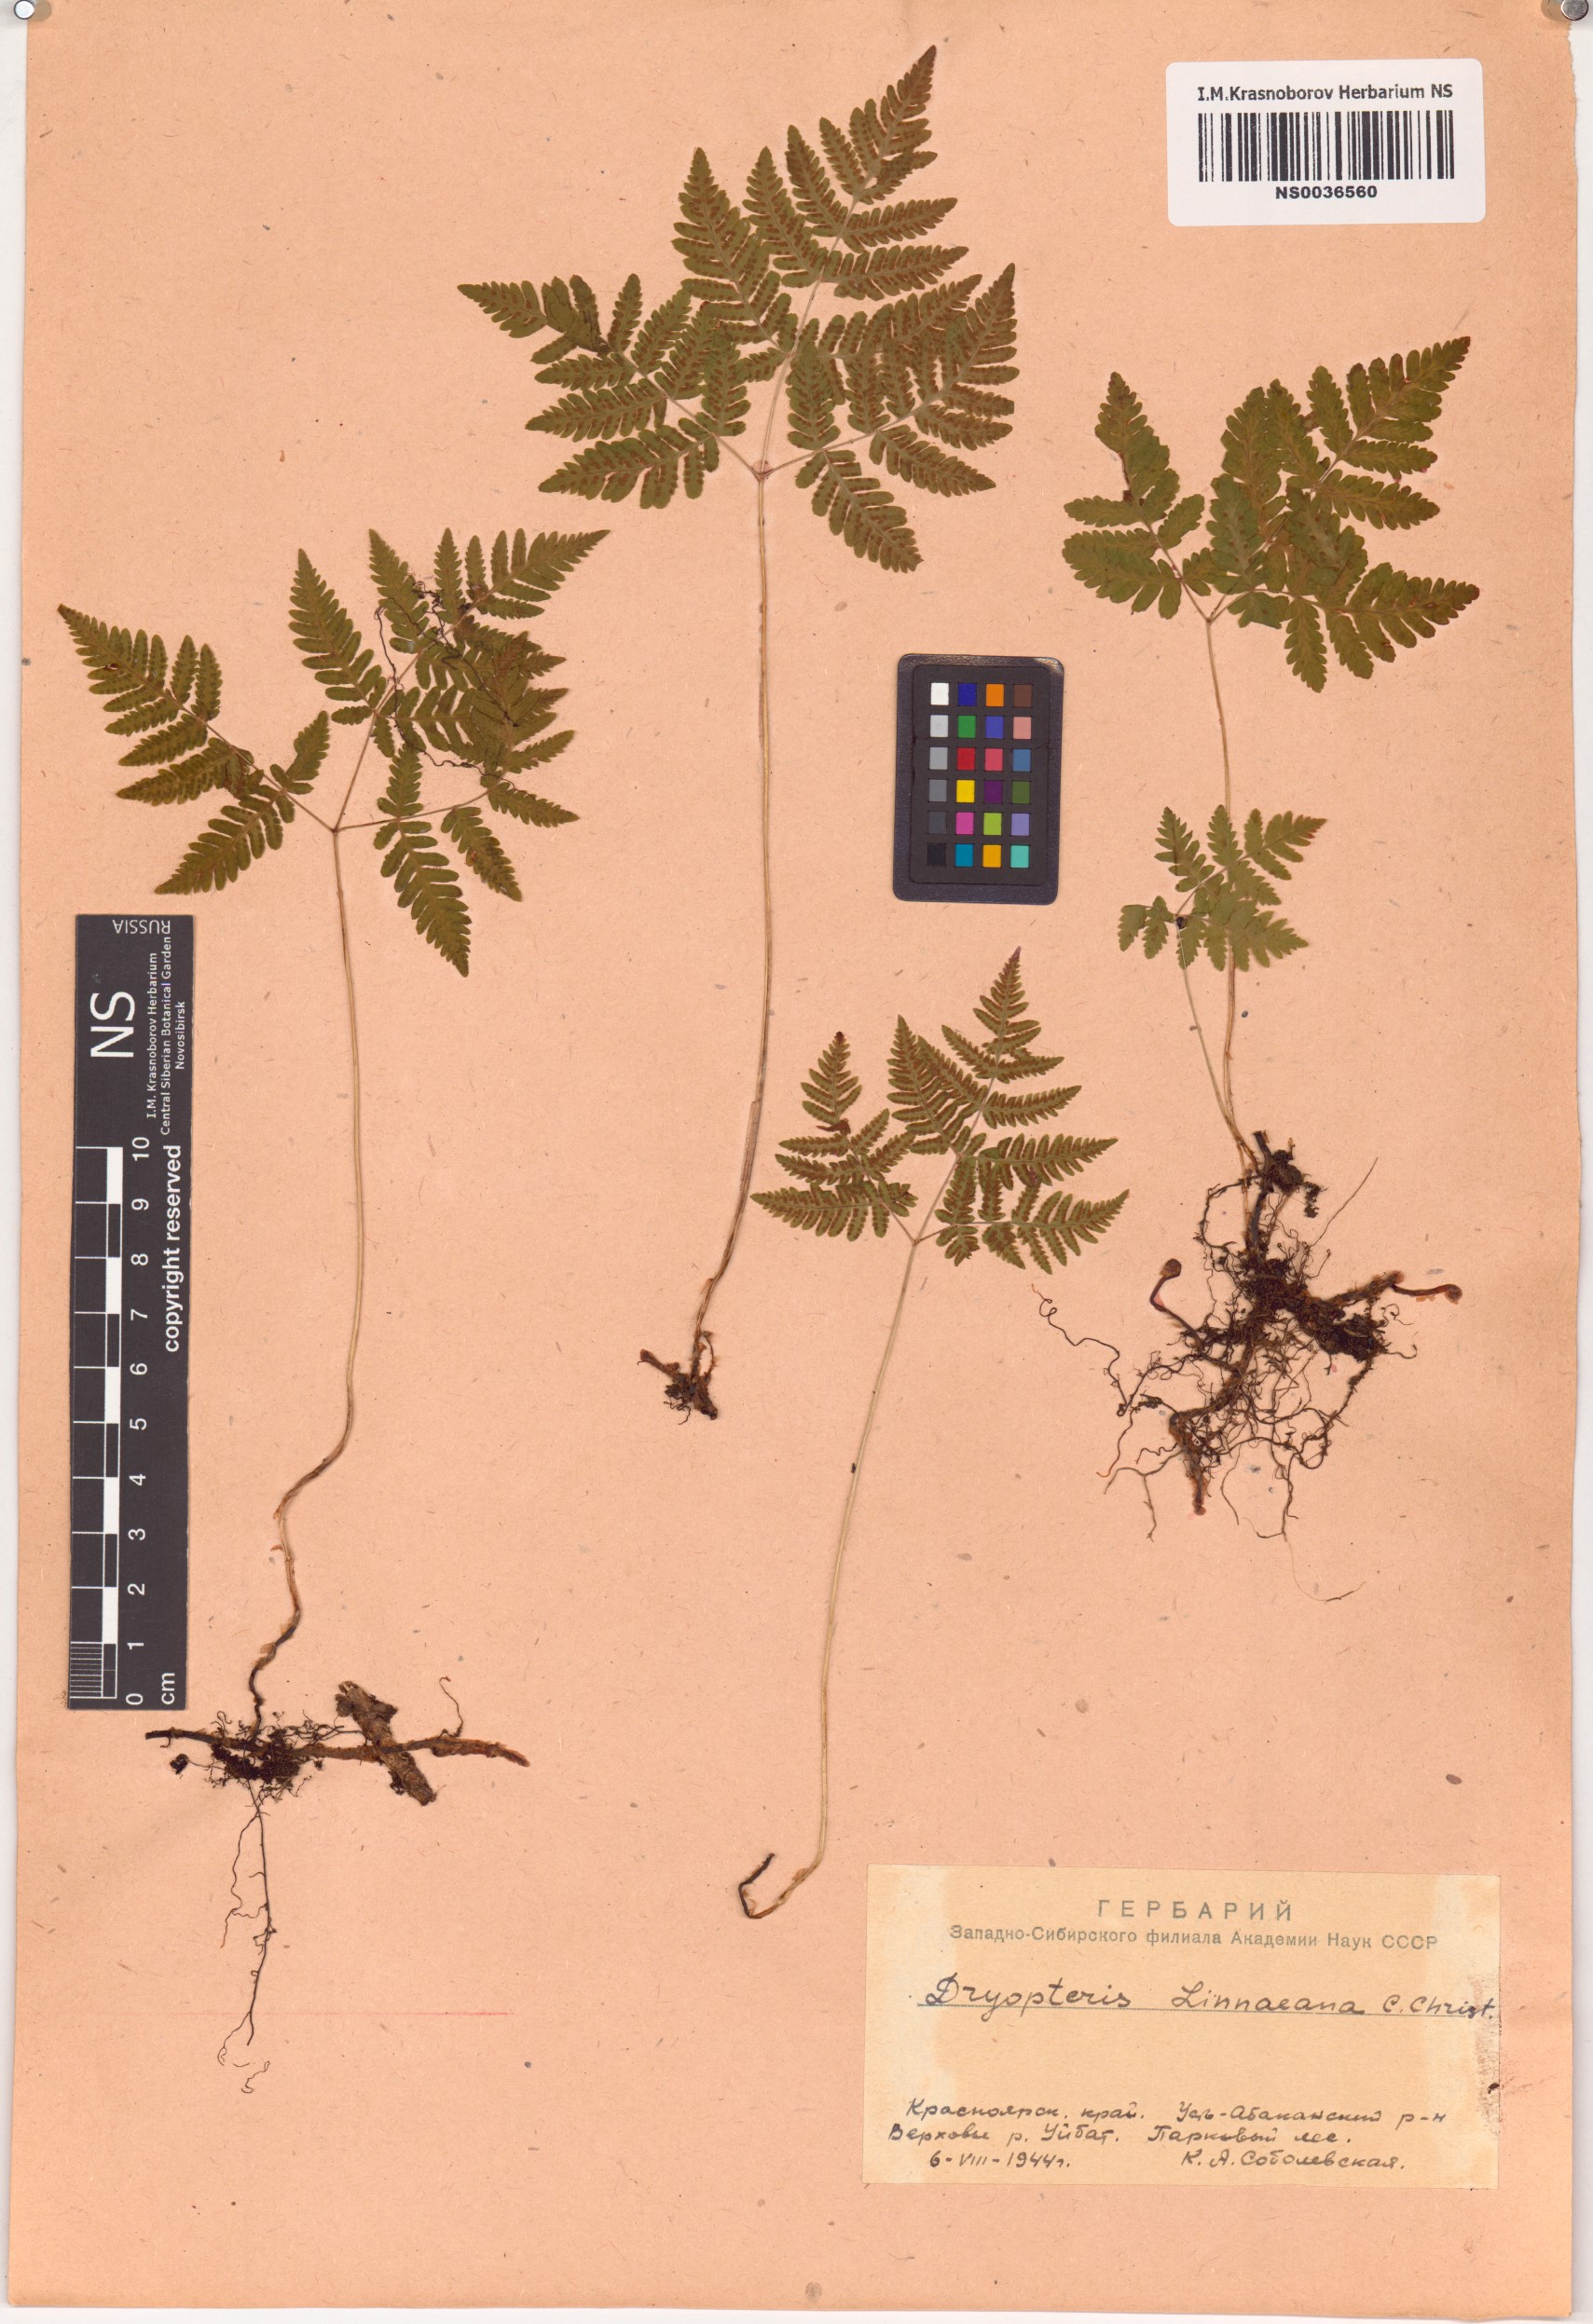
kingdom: Plantae
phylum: Tracheophyta
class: Polypodiopsida
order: Polypodiales
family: Cystopteridaceae
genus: Gymnocarpium
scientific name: Gymnocarpium dryopteris
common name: Oak fern
